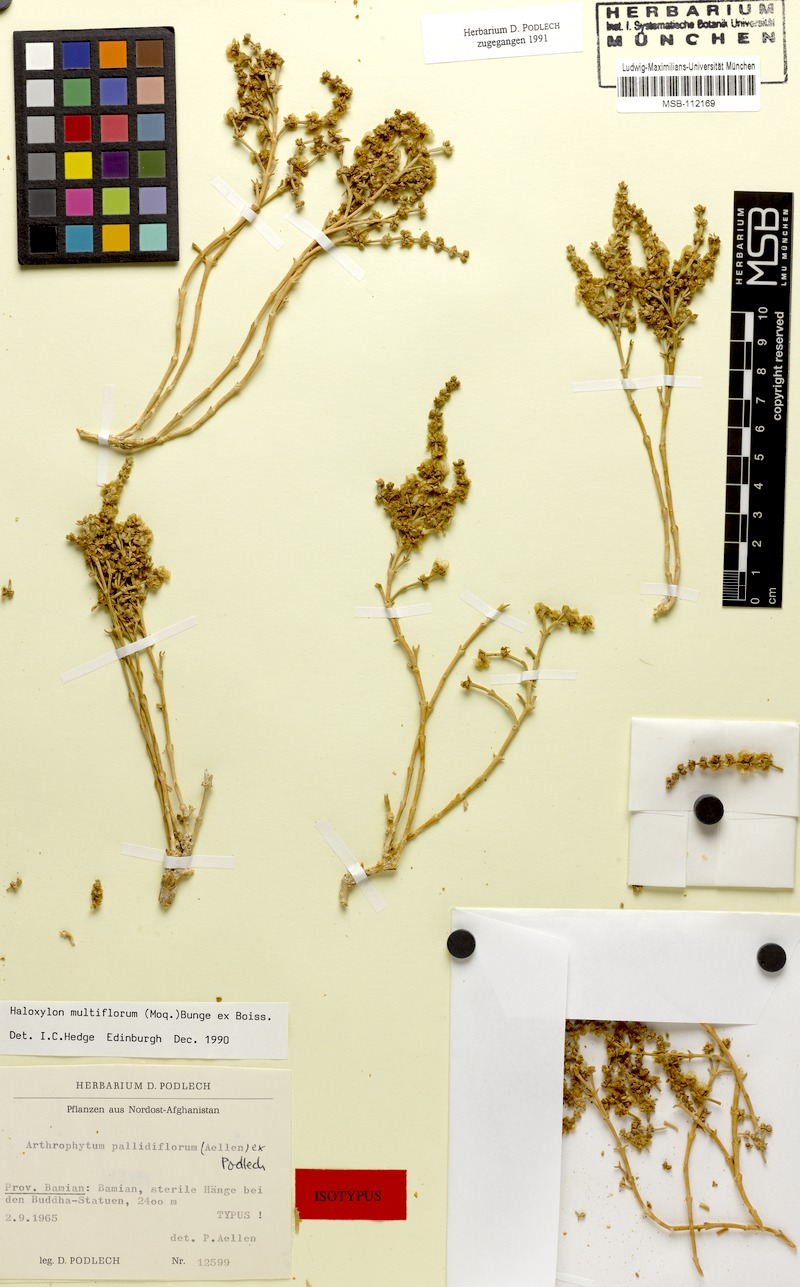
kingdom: Plantae
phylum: Tracheophyta
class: Magnoliopsida
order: Caryophyllales
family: Amaranthaceae
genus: Haloxylon
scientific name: Haloxylon multiflorum
